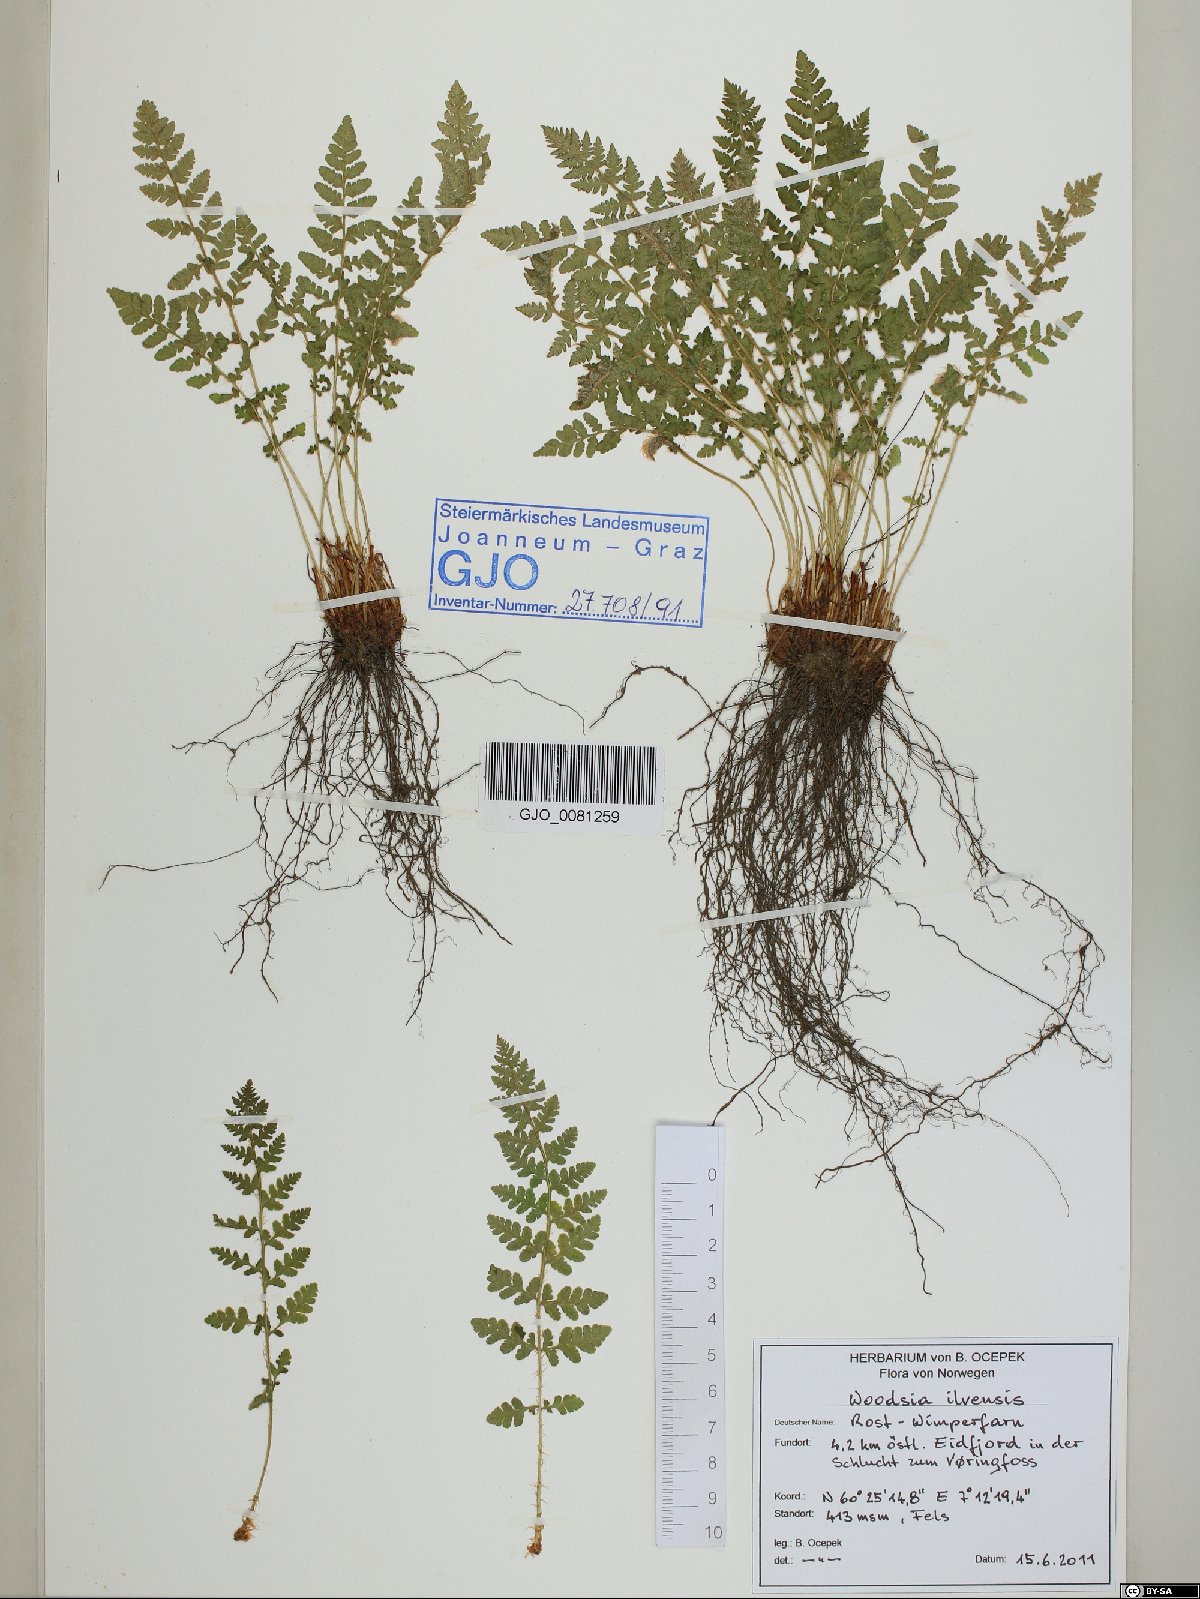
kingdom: Plantae
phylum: Tracheophyta
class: Polypodiopsida
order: Polypodiales
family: Woodsiaceae
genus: Woodsia
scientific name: Woodsia ilvensis
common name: Fragrant woodsia
